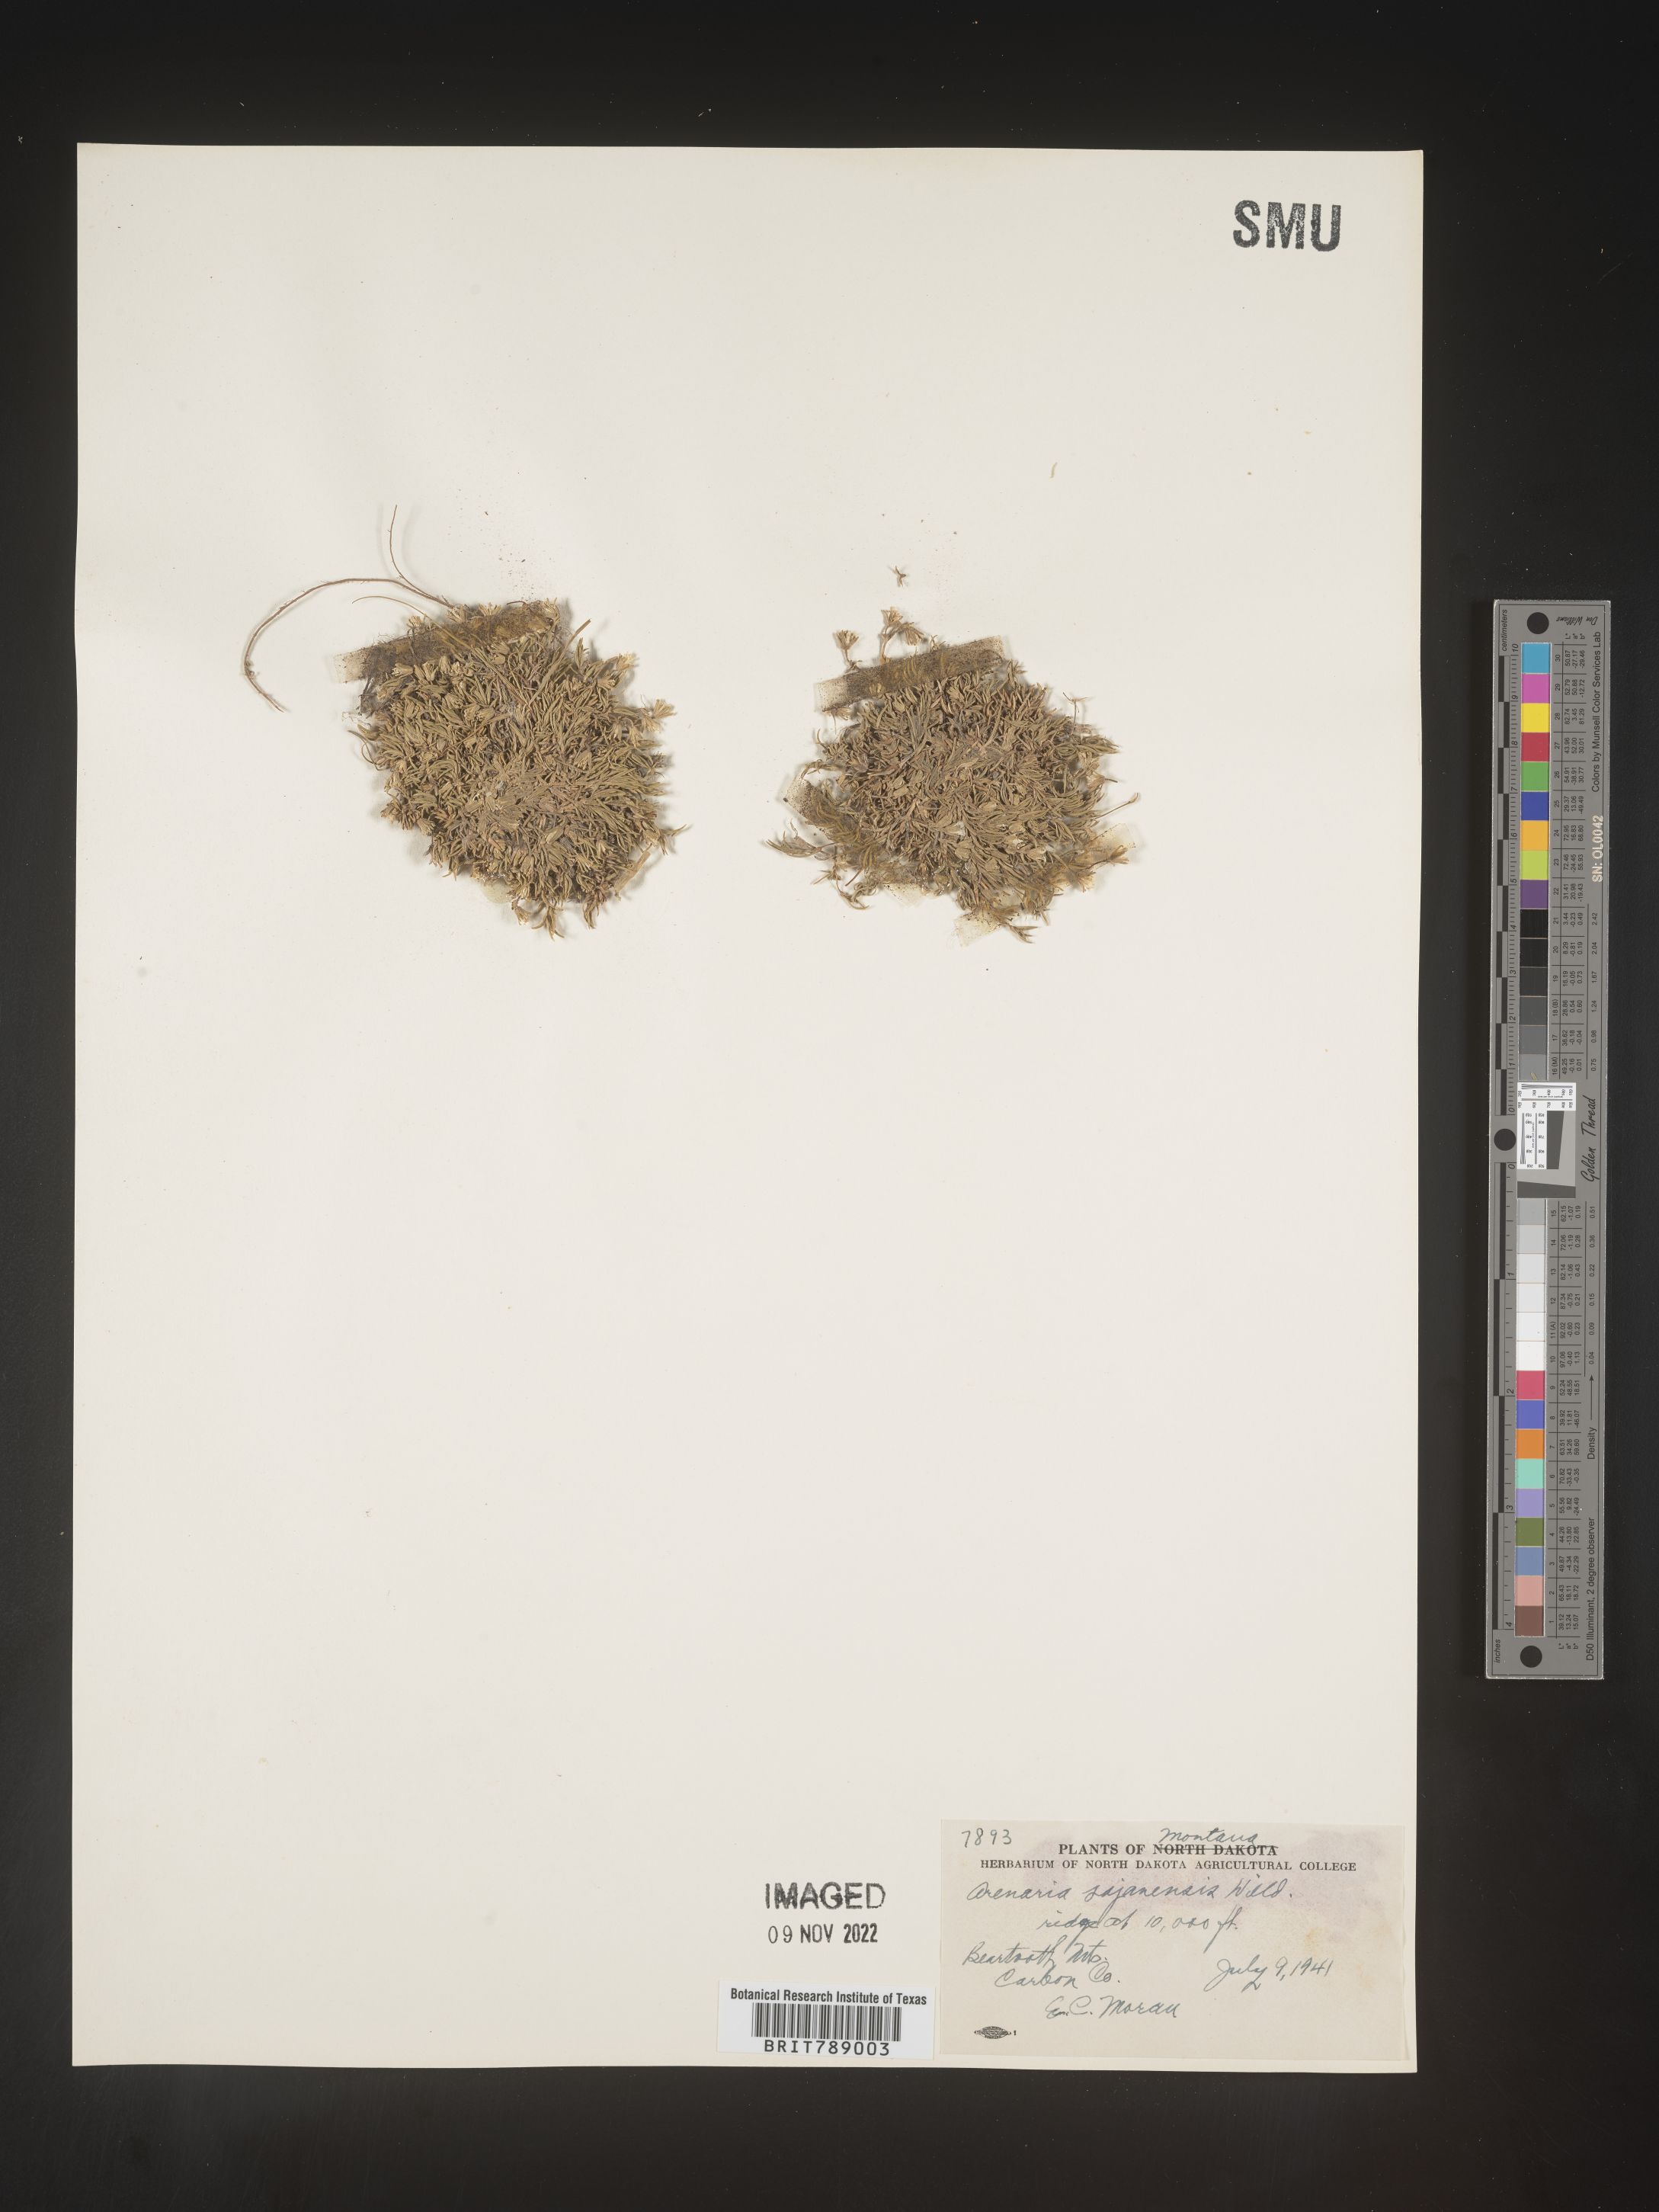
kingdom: Plantae
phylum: Tracheophyta
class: Magnoliopsida
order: Caryophyllales
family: Caryophyllaceae
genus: Arenaria
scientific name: Arenaria
